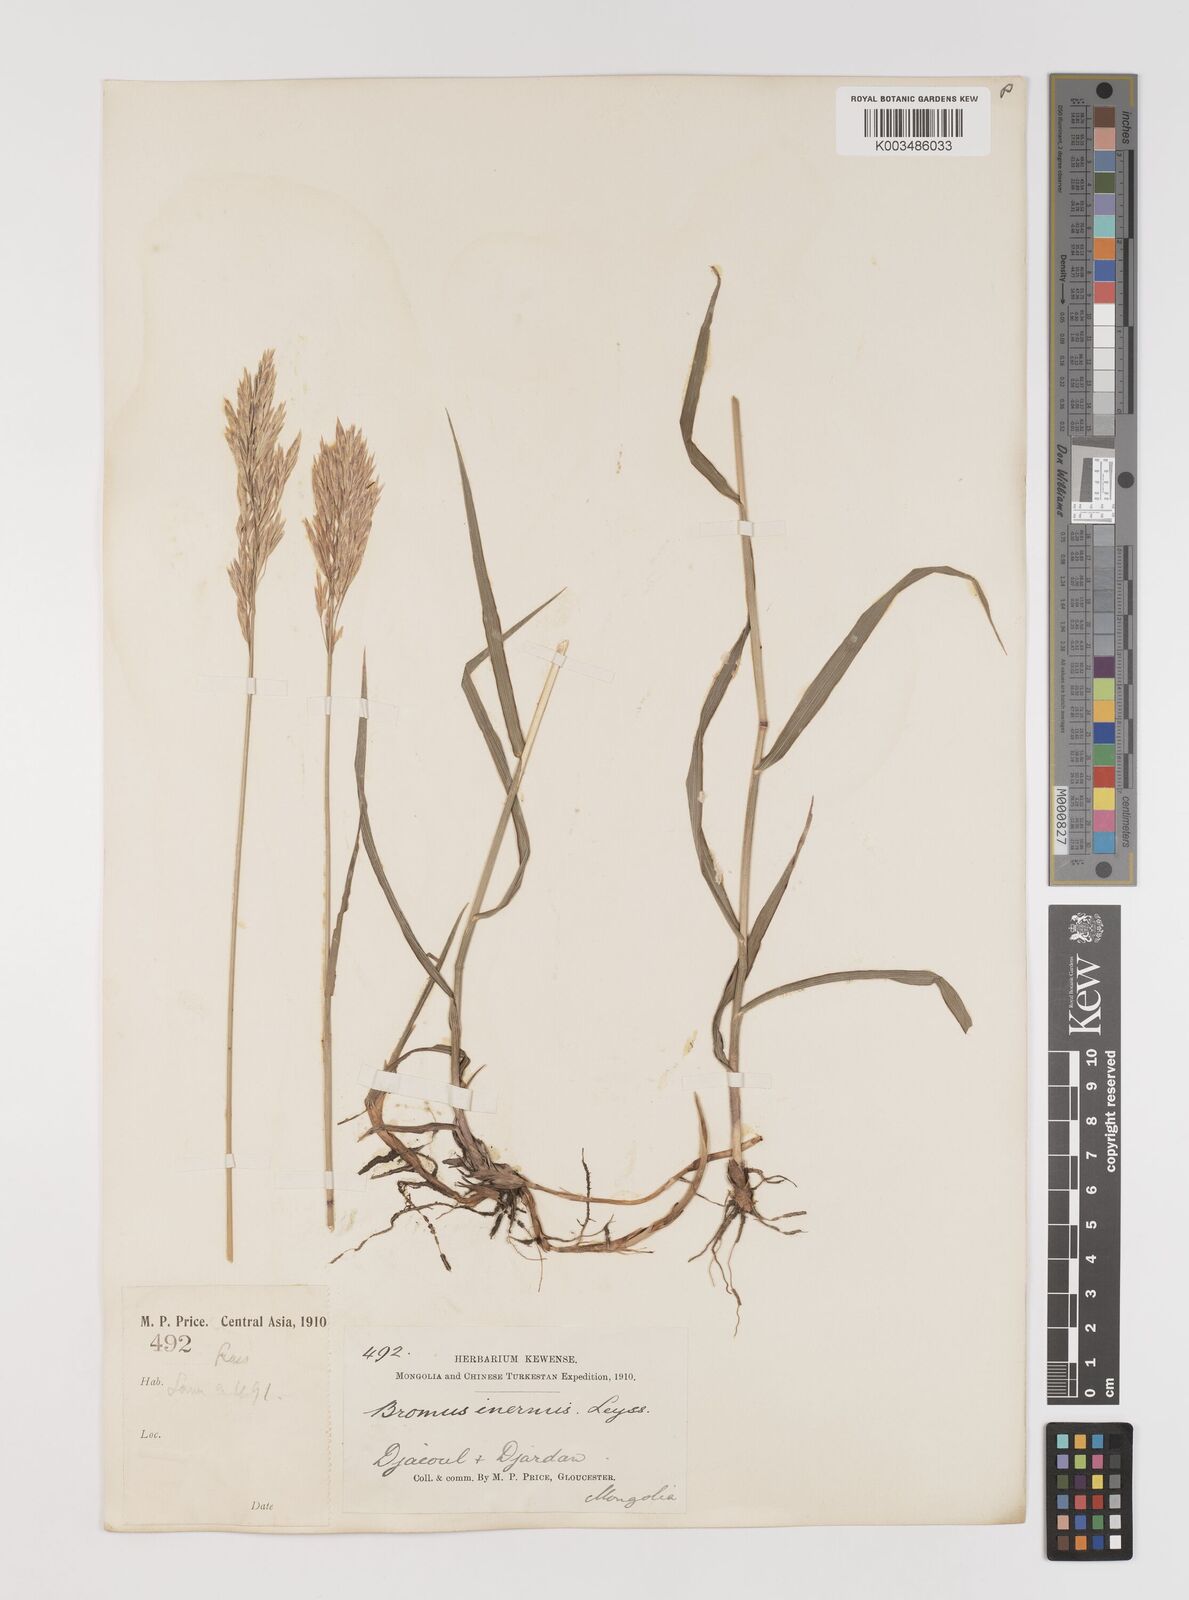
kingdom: Plantae
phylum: Tracheophyta
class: Liliopsida
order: Poales
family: Poaceae
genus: Bromus
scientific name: Bromus inermis
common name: Smooth brome
